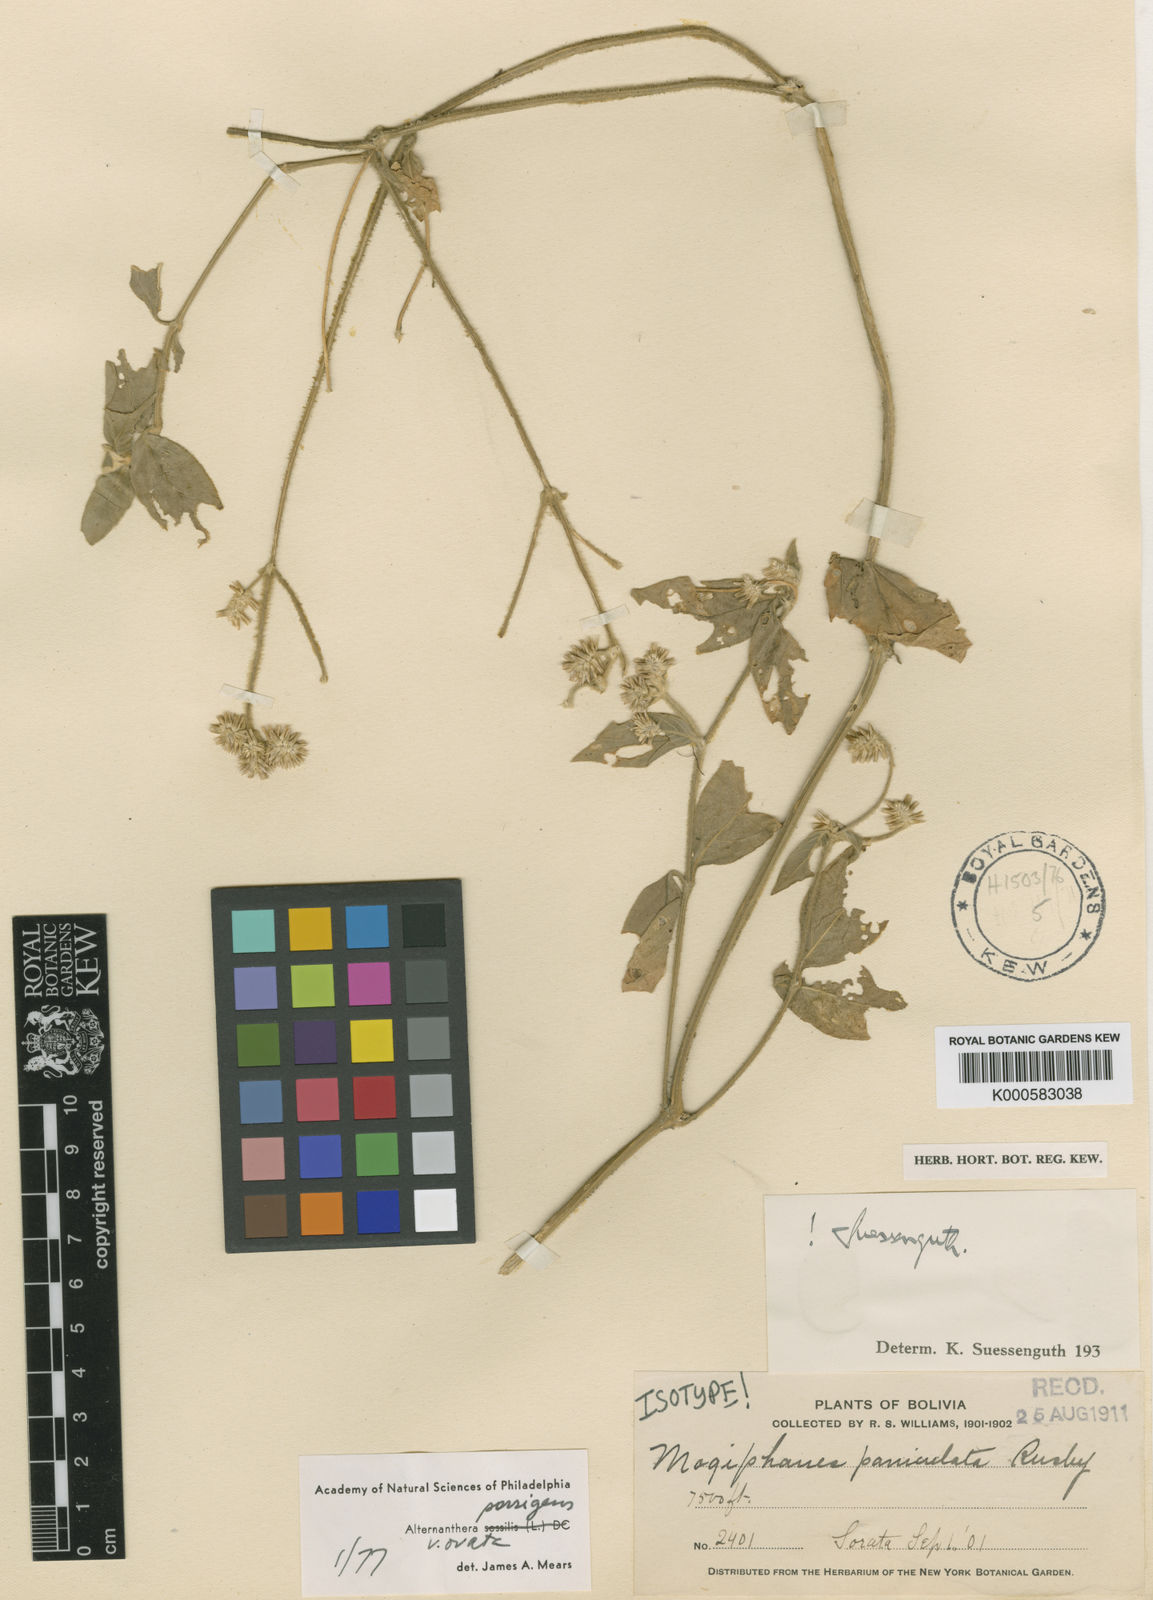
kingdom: Plantae
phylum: Tracheophyta
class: Magnoliopsida
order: Caryophyllales
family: Amaranthaceae
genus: Alternanthera
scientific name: Alternanthera porrigens
